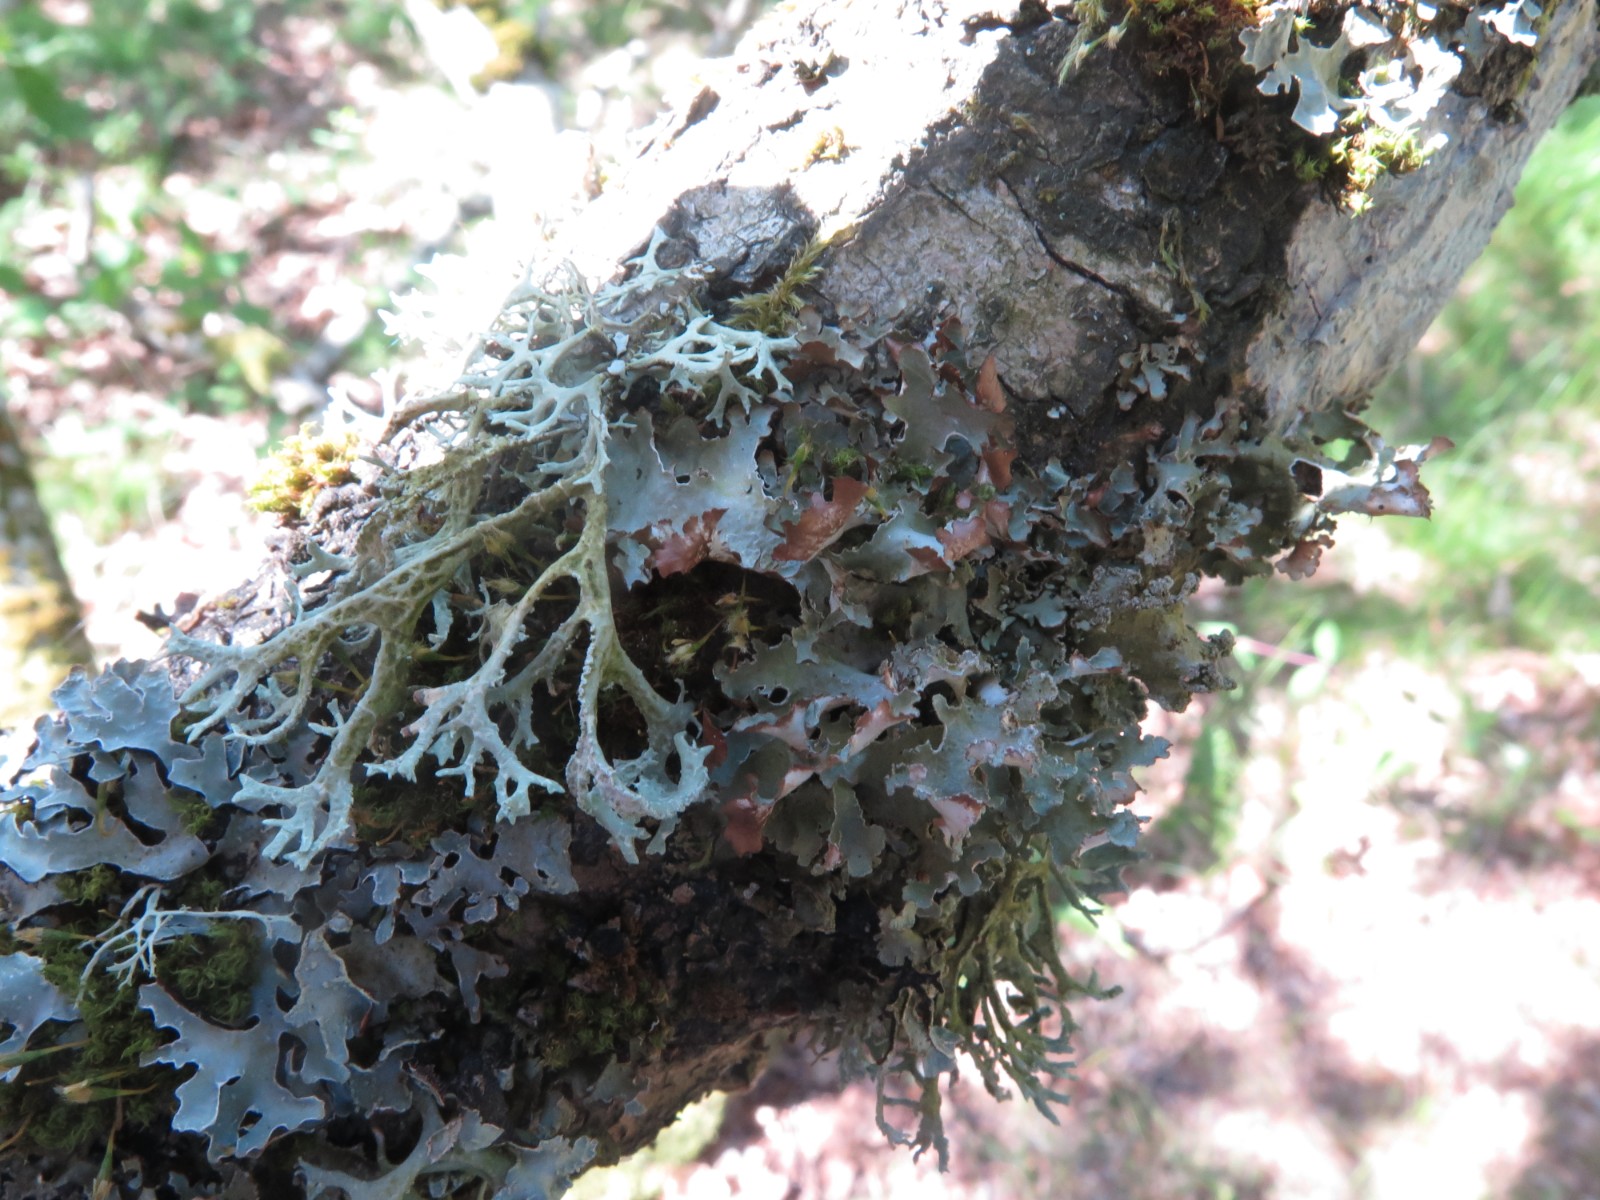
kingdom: Fungi
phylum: Ascomycota
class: Lecanoromycetes
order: Lecanorales
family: Parmeliaceae
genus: Platismatia
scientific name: Platismatia glauca
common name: blågrå papirlav
